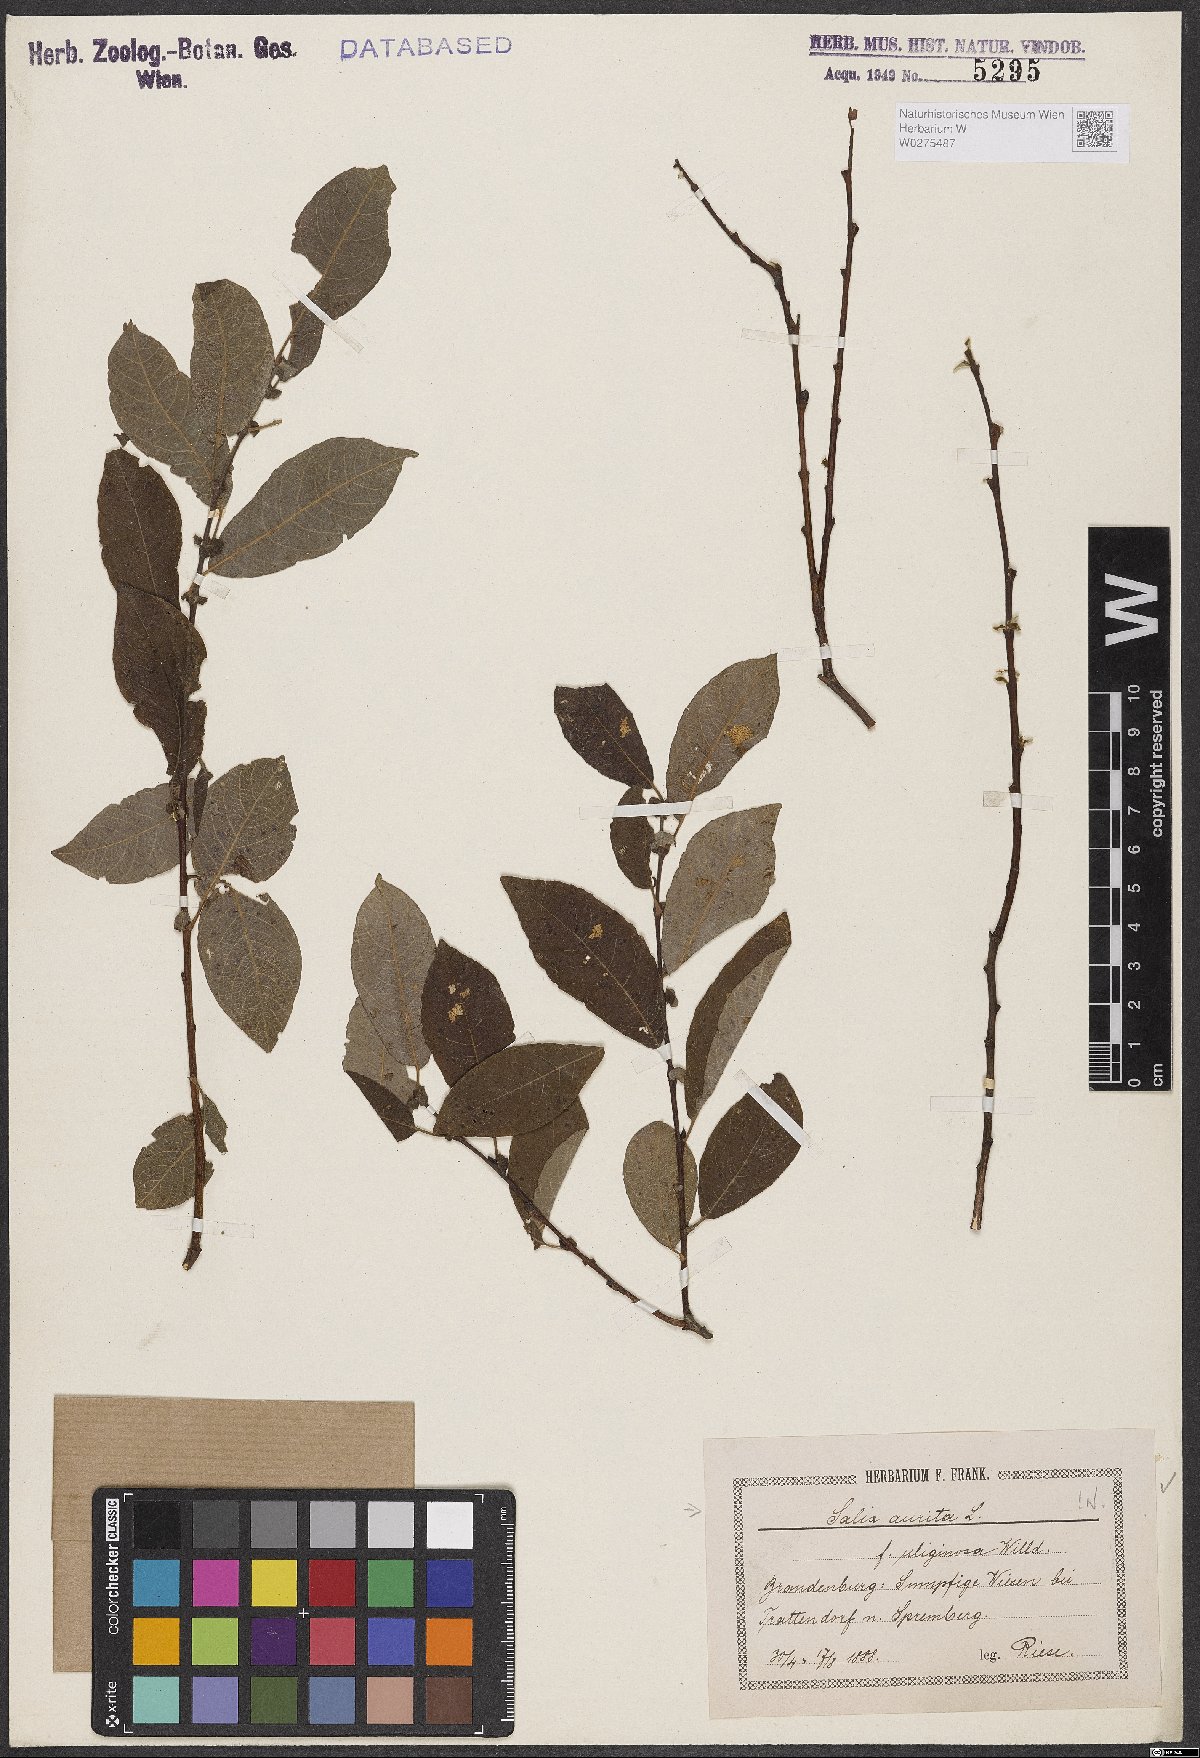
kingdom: Plantae
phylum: Tracheophyta
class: Magnoliopsida
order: Malpighiales
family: Salicaceae
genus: Salix
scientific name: Salix aurita
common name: Eared willow
